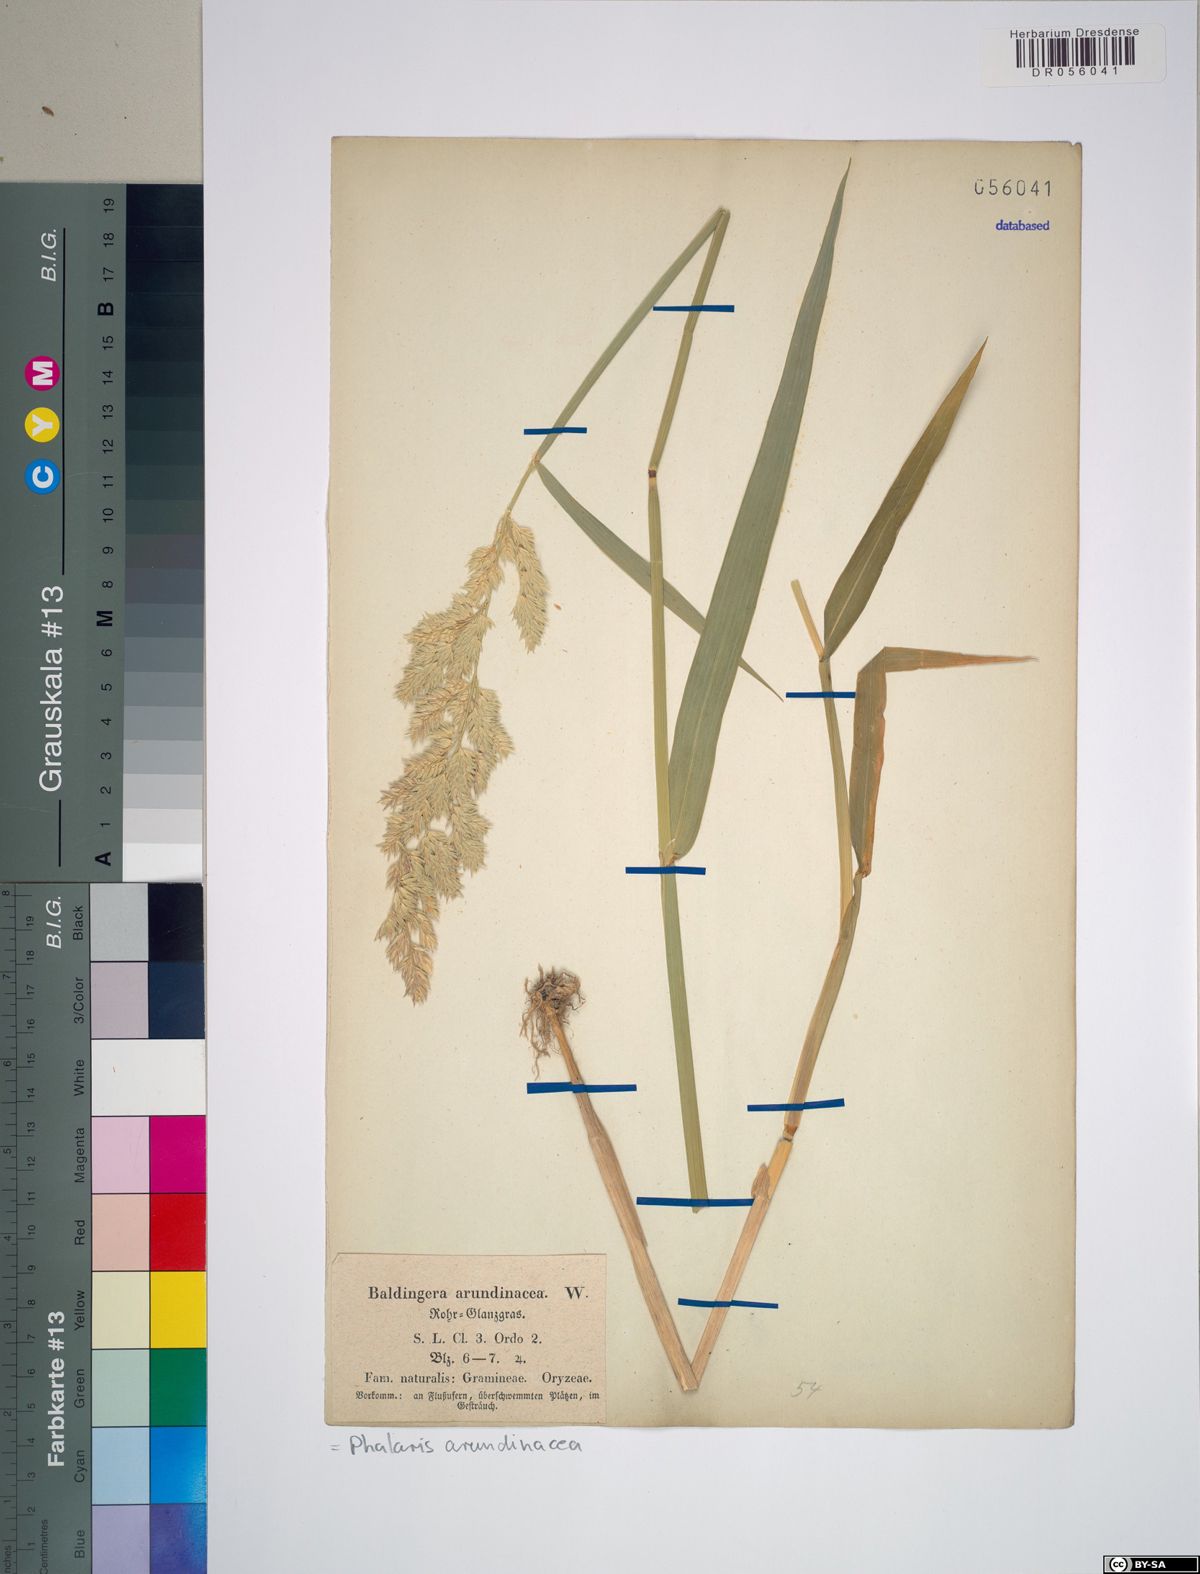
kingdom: Plantae
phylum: Tracheophyta
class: Liliopsida
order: Poales
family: Poaceae
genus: Phalaris
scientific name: Phalaris arundinacea
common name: Reed canary-grass
